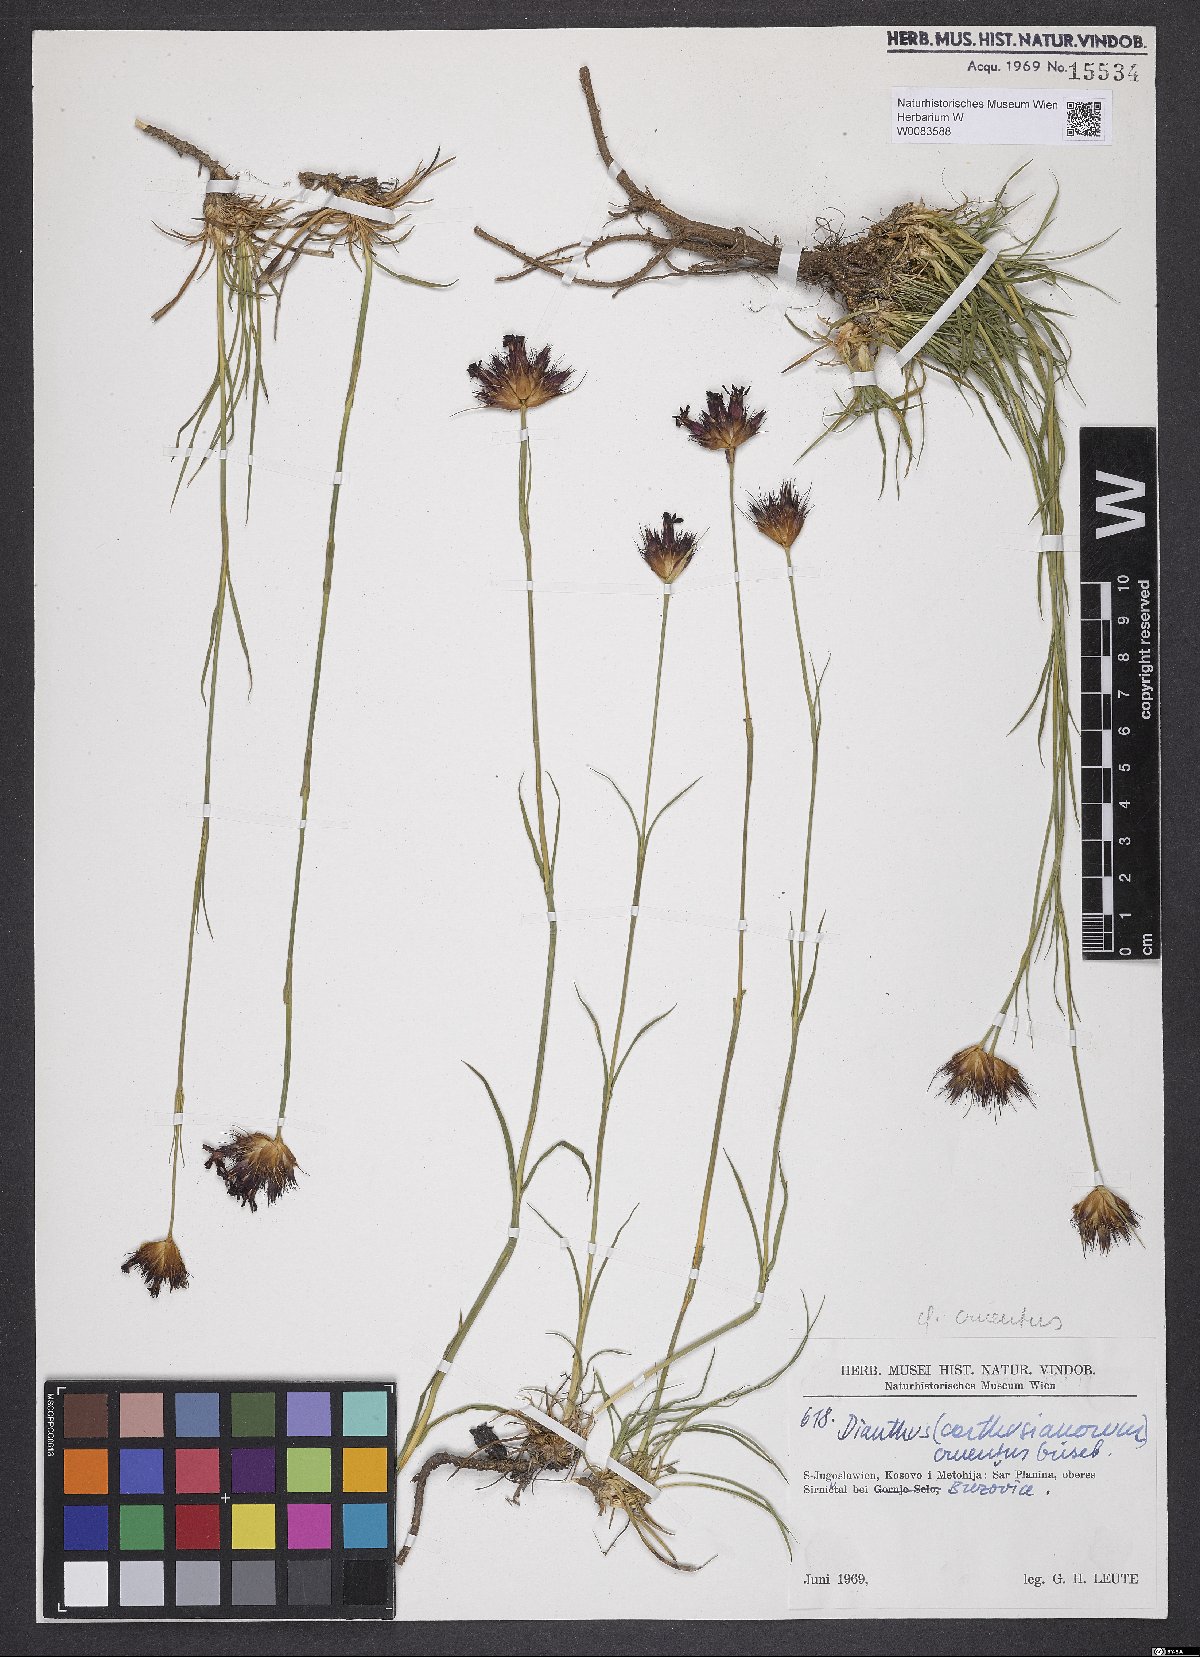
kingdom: Plantae
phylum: Tracheophyta
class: Magnoliopsida
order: Caryophyllales
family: Caryophyllaceae
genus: Dianthus
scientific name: Dianthus cruentus
